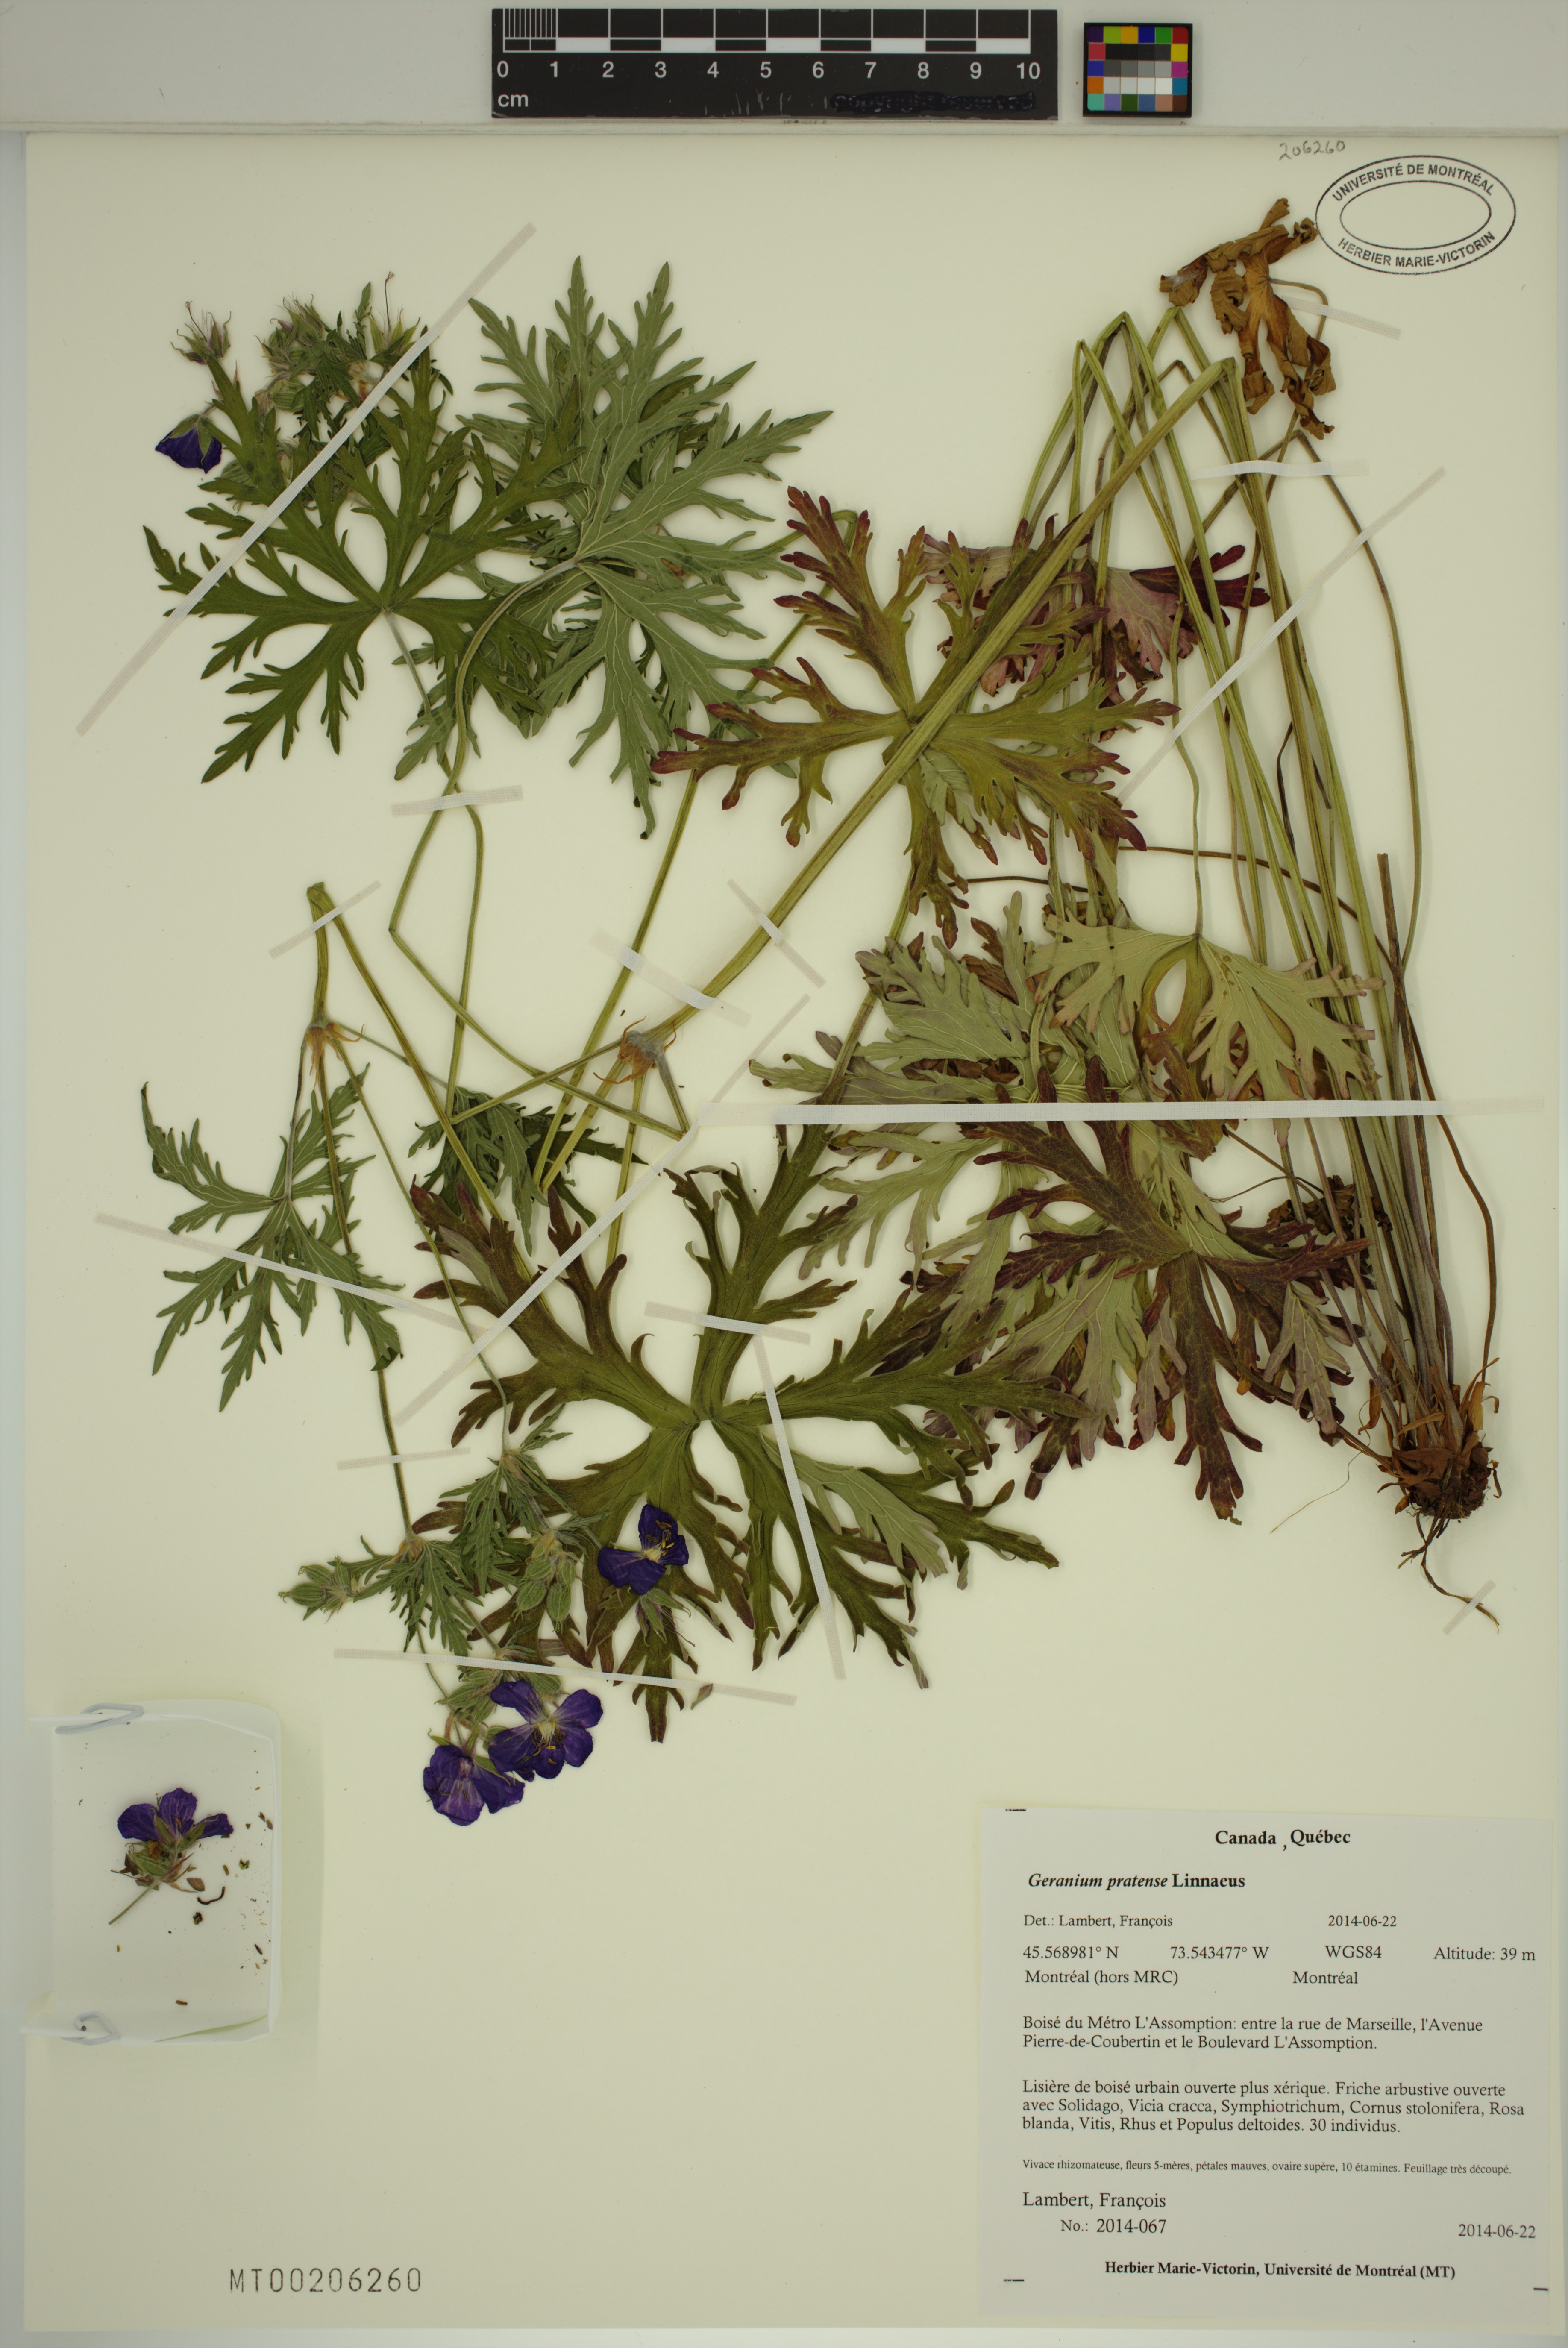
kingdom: Plantae
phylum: Tracheophyta
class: Magnoliopsida
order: Geraniales
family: Geraniaceae
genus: Geranium
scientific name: Geranium pratense
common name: Meadow crane's-bill
